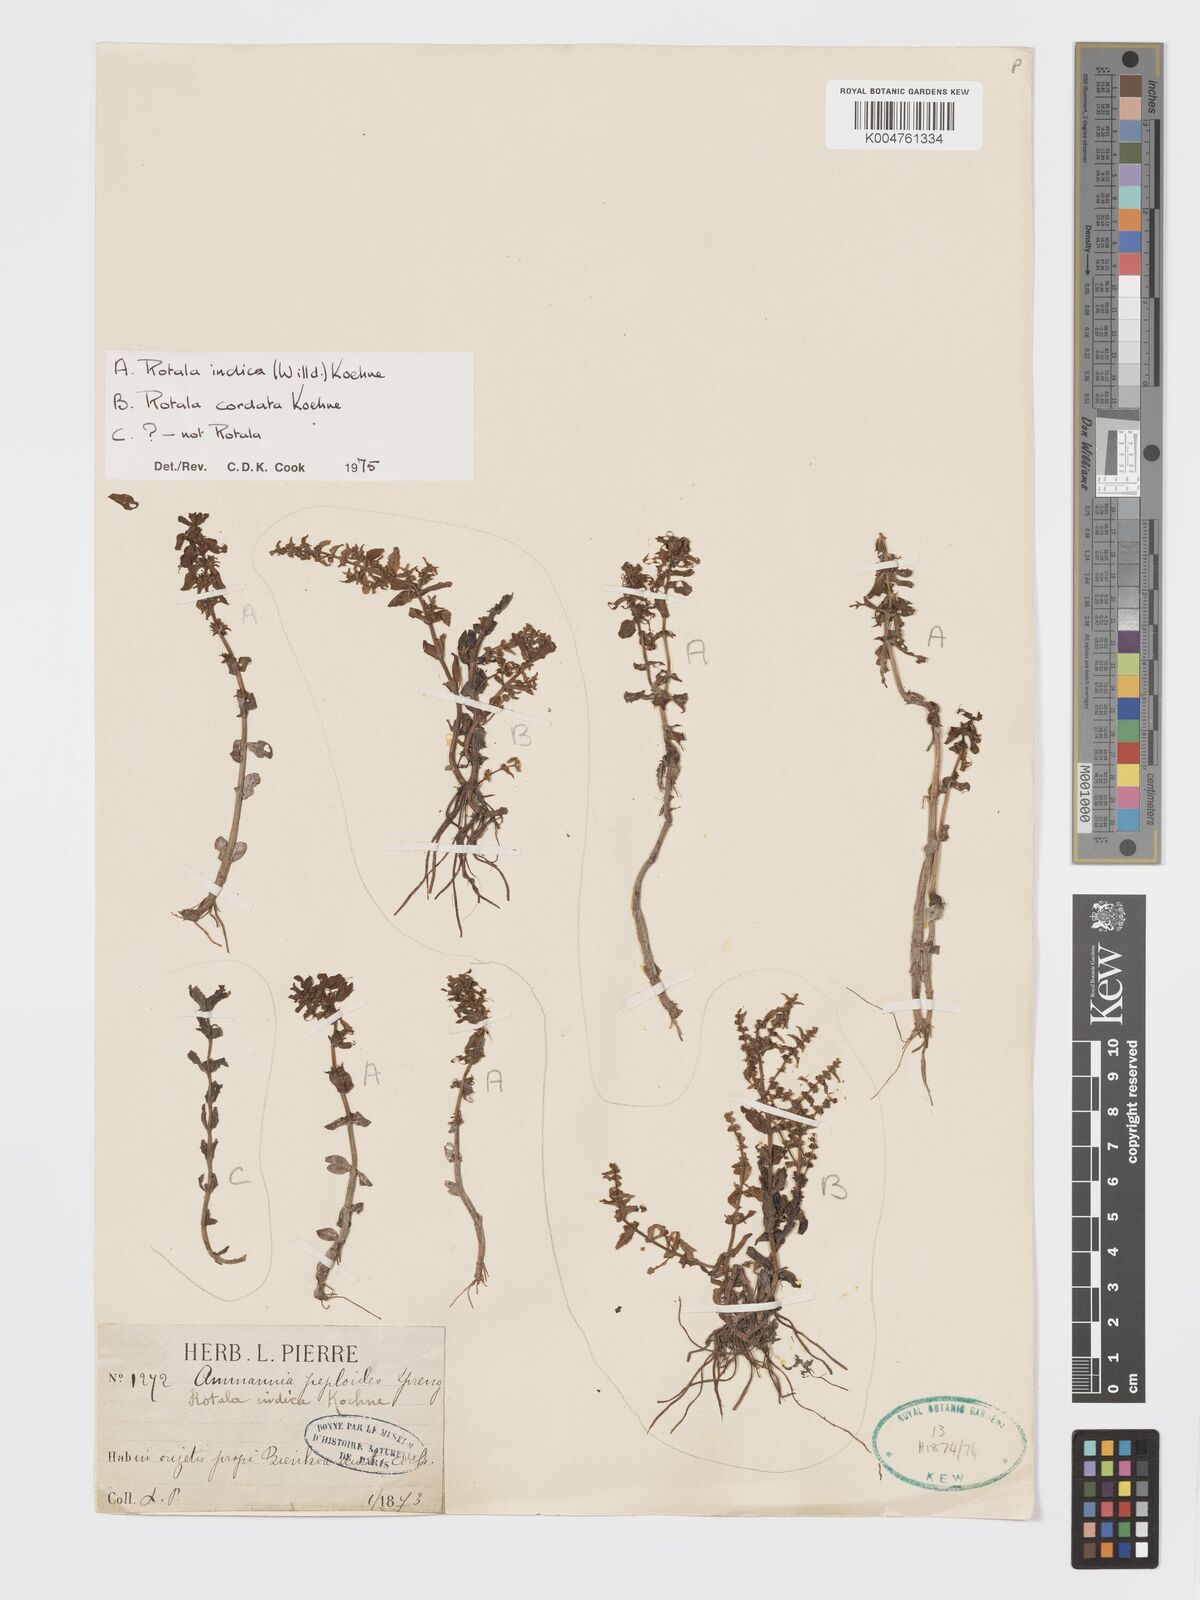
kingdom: Plantae
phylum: Tracheophyta
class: Magnoliopsida
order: Myrtales
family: Lythraceae
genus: Rotala
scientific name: Rotala indica
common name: Indian toothcup
